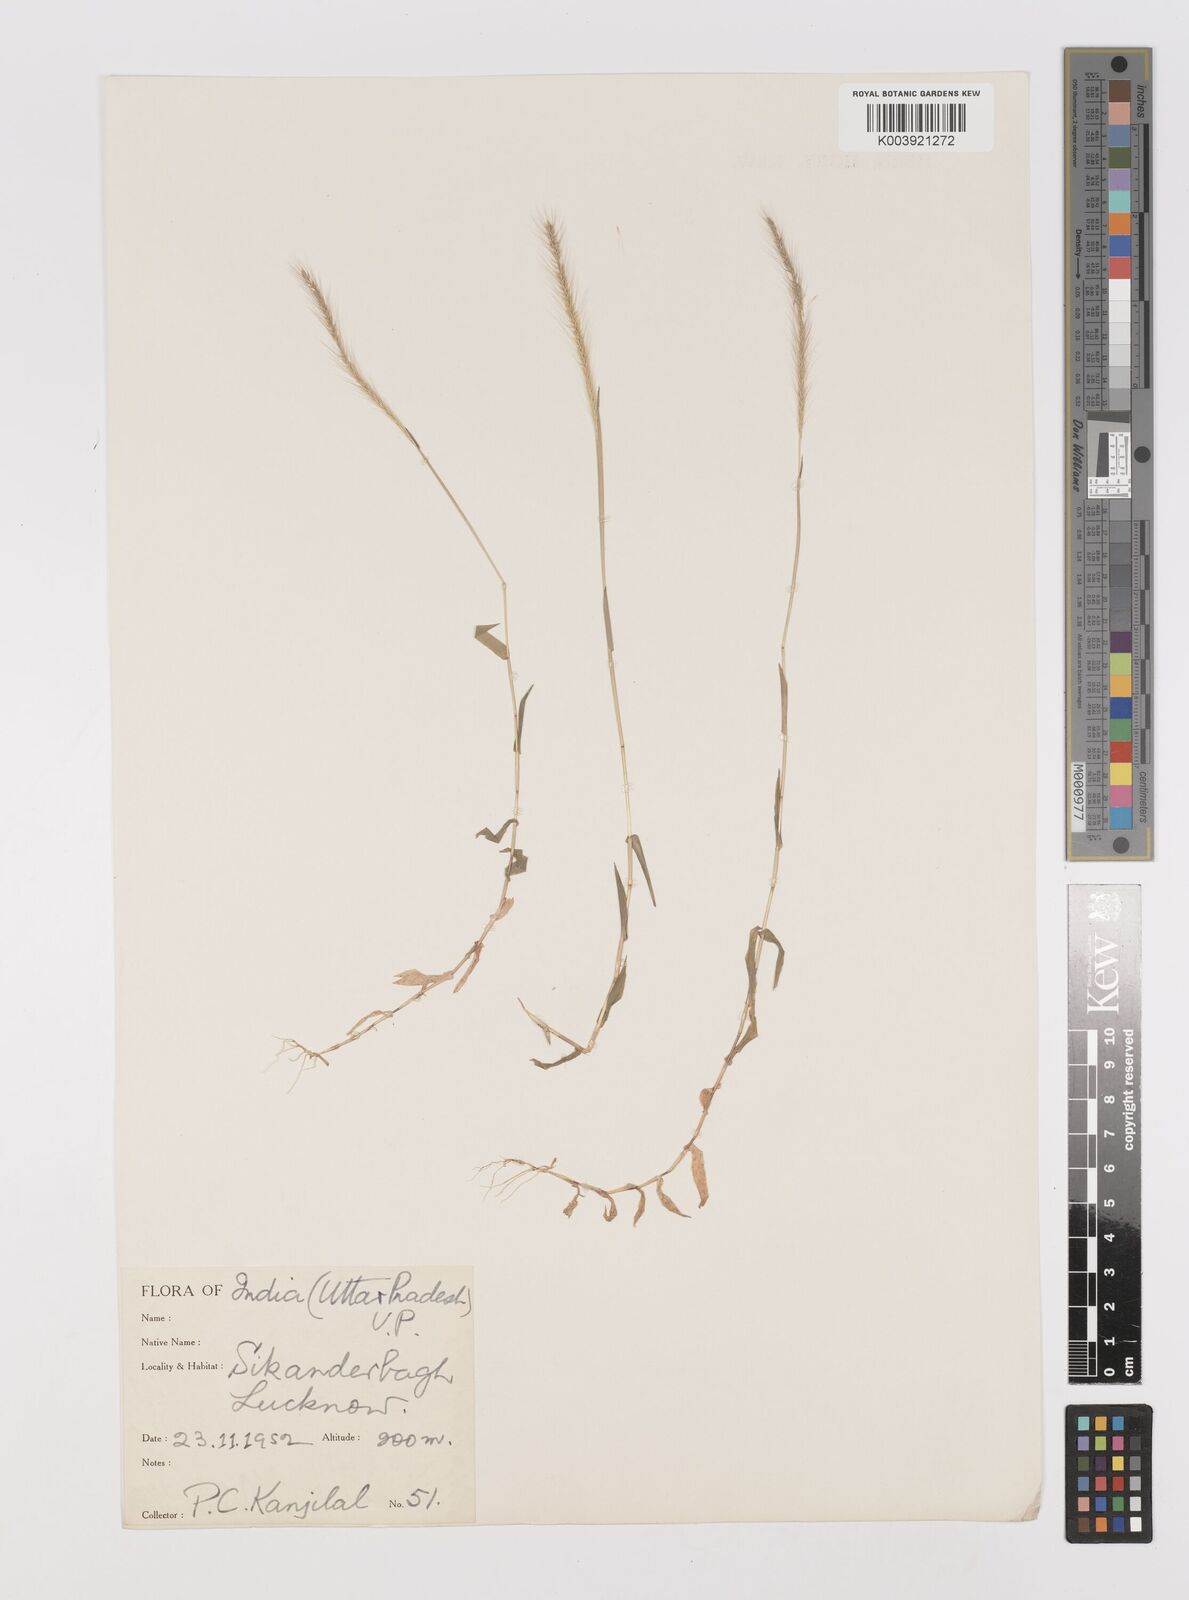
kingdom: Plantae
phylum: Tracheophyta
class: Liliopsida
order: Poales
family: Poaceae
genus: Perotis
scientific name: Perotis hordeiformis
